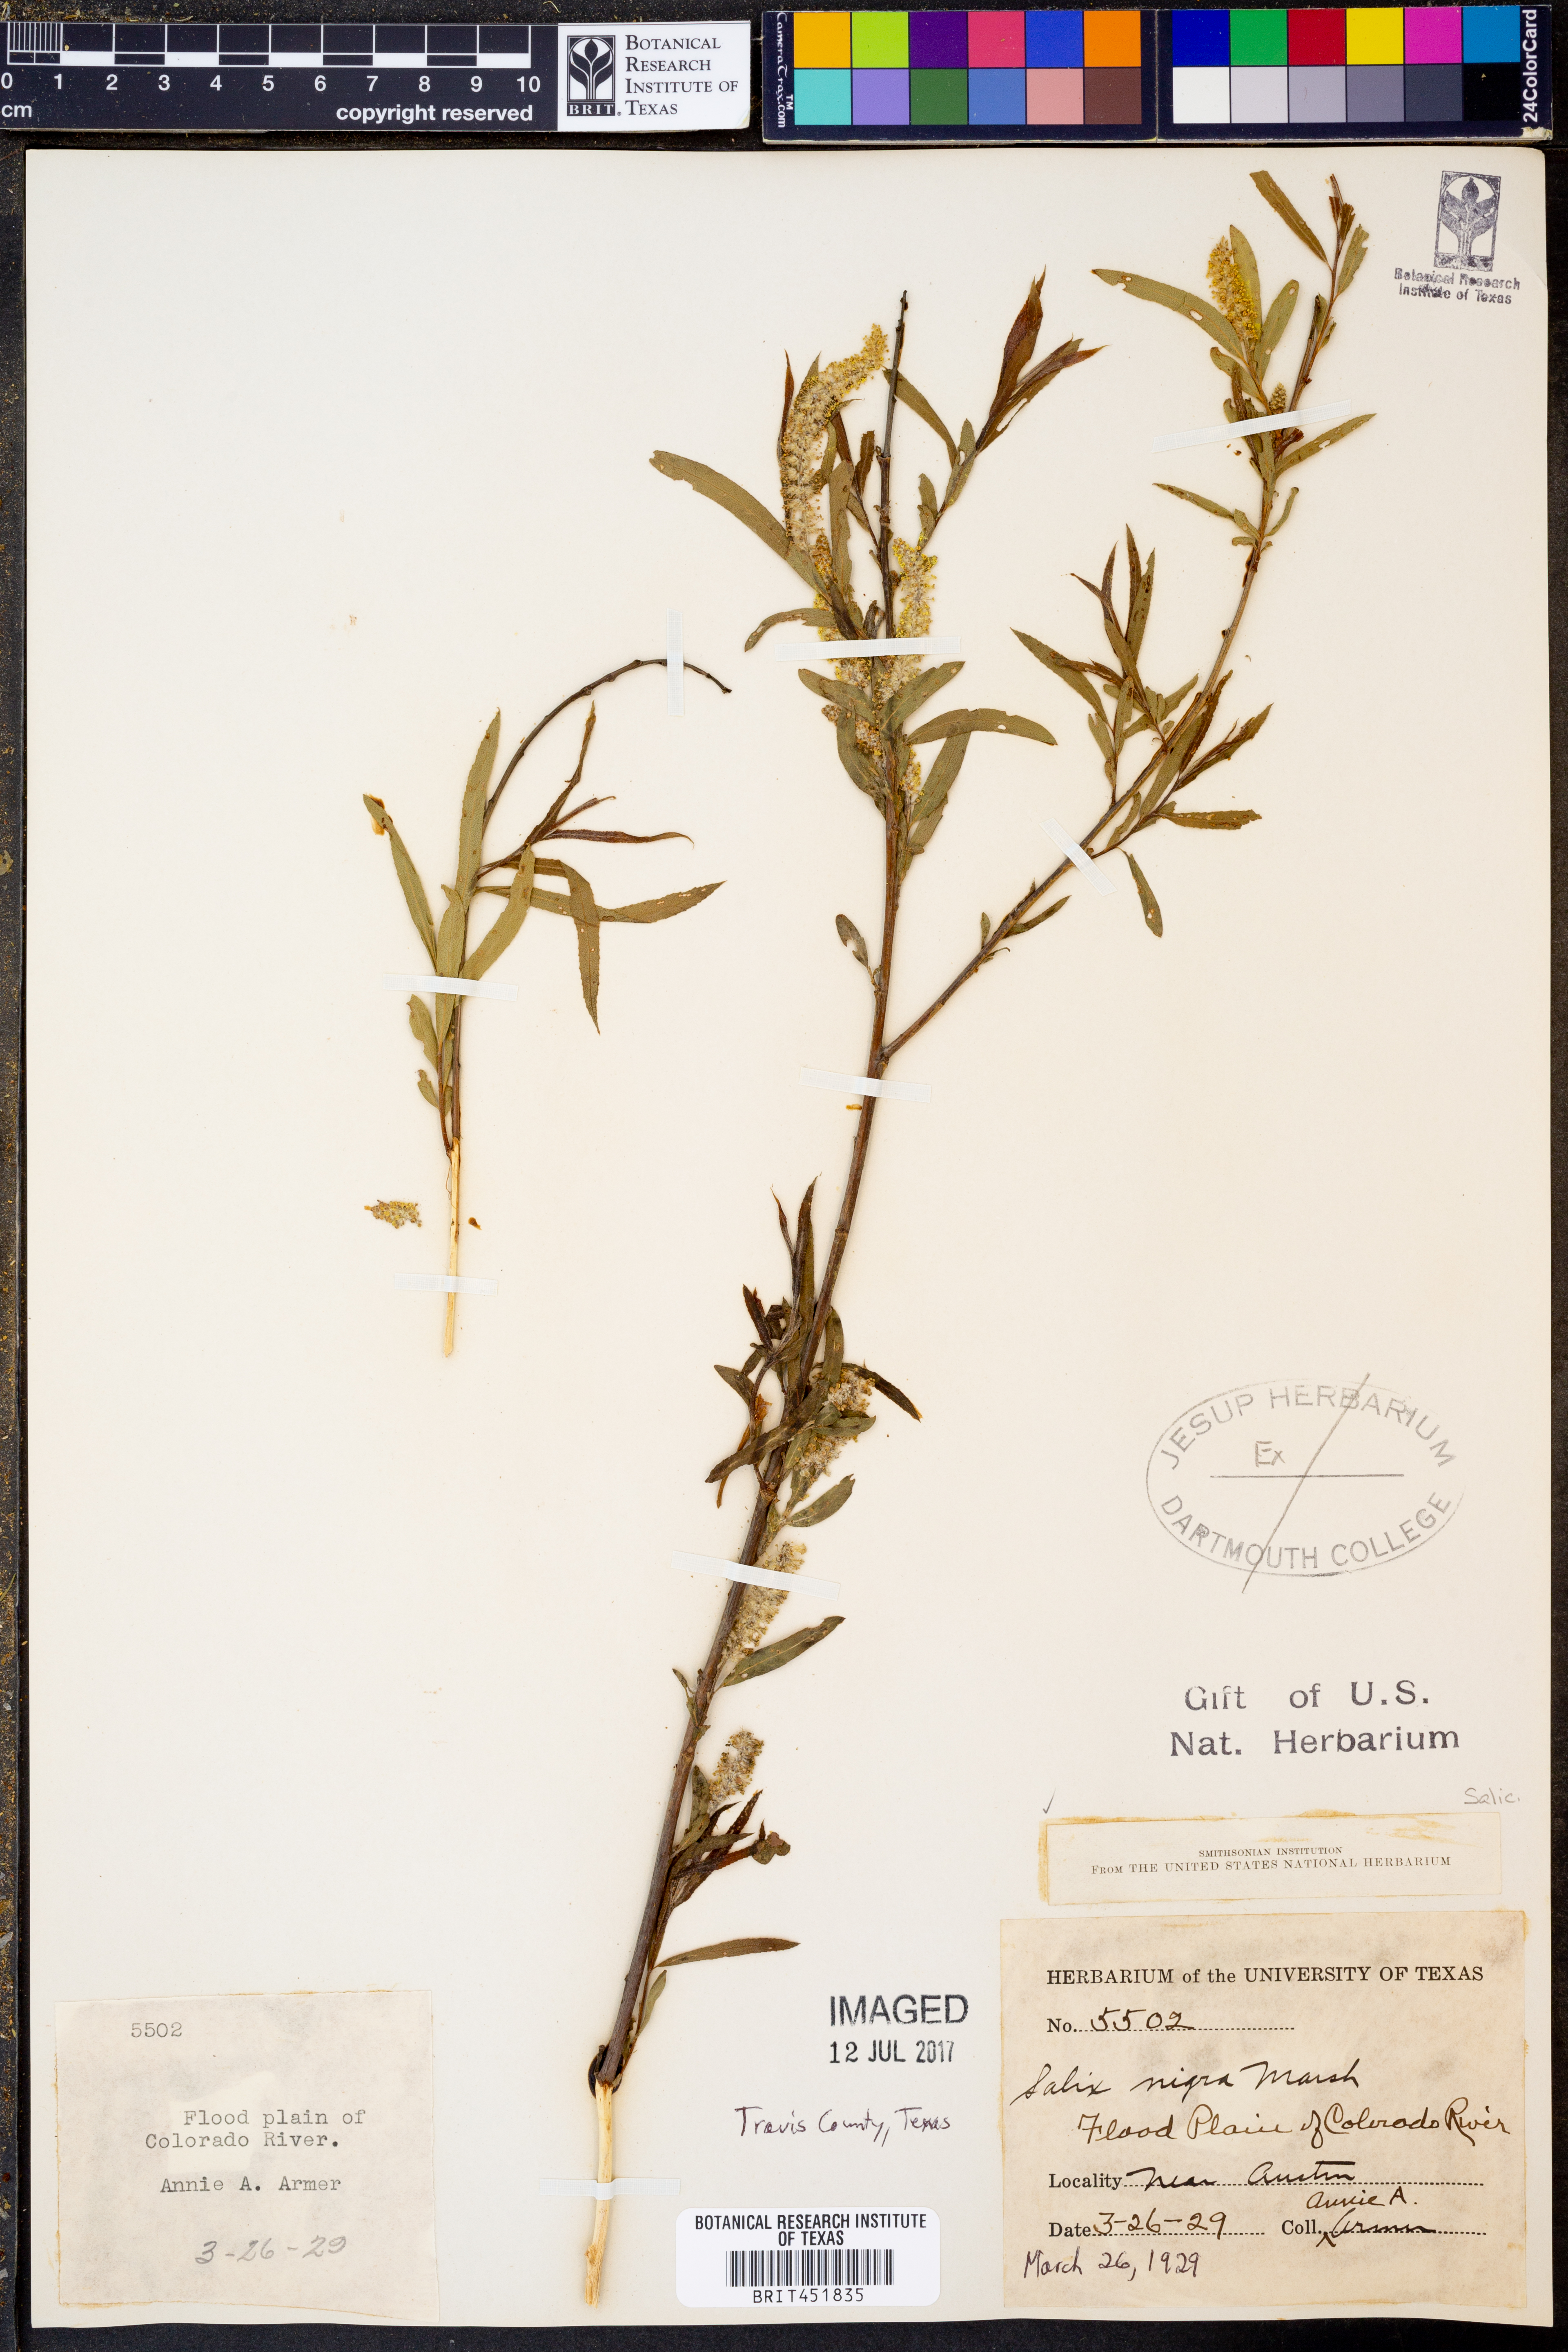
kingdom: Plantae
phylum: Tracheophyta
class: Magnoliopsida
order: Malpighiales
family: Salicaceae
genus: Salix
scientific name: Salix nigra
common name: Black willow
